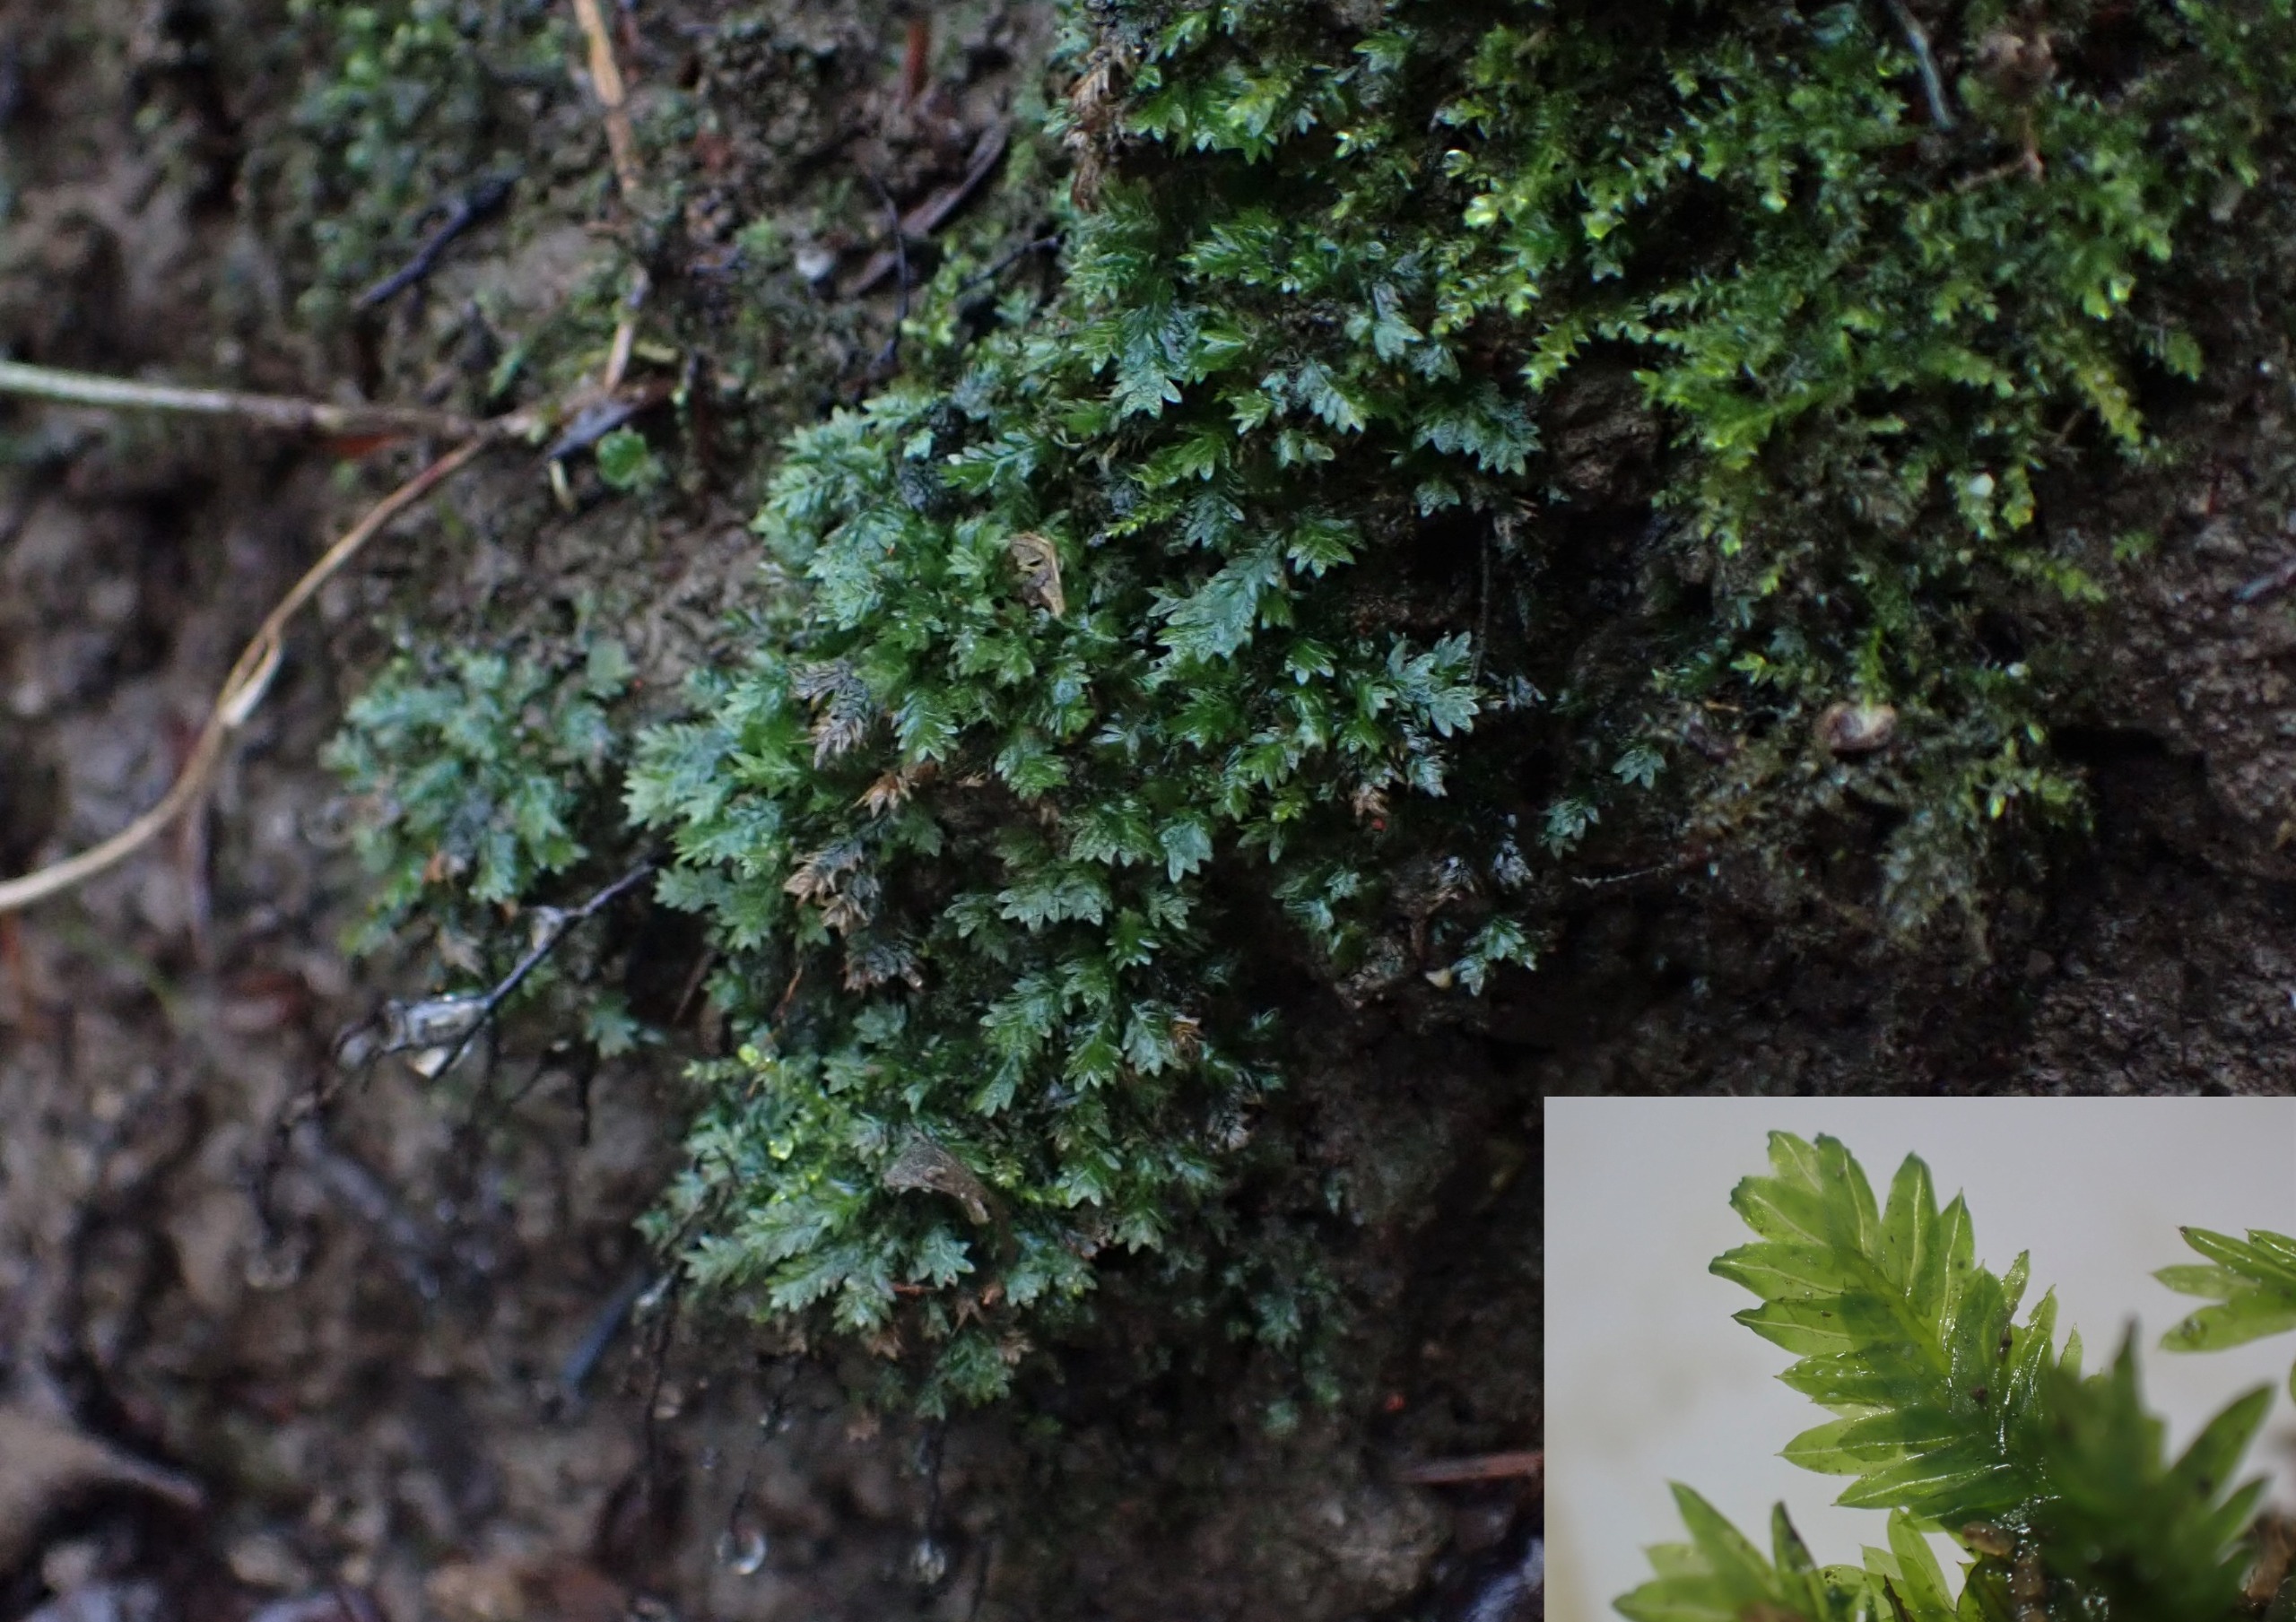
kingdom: Plantae
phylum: Bryophyta
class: Bryopsida
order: Dicranales
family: Fissidentaceae
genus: Fissidens
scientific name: Fissidens taxifolius
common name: Taksbladet rademos
